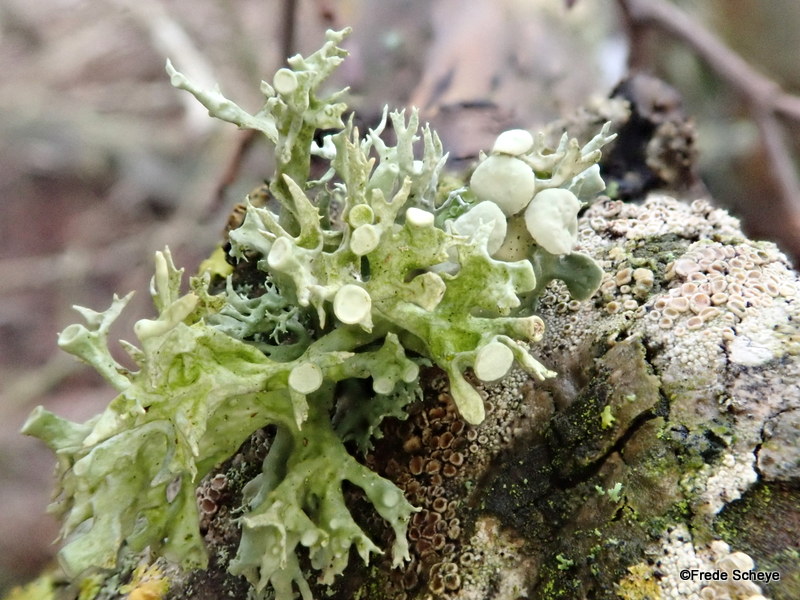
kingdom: Fungi
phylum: Ascomycota
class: Lecanoromycetes
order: Lecanorales
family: Ramalinaceae
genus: Ramalina
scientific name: Ramalina fastigiata
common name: tue-grenlav
